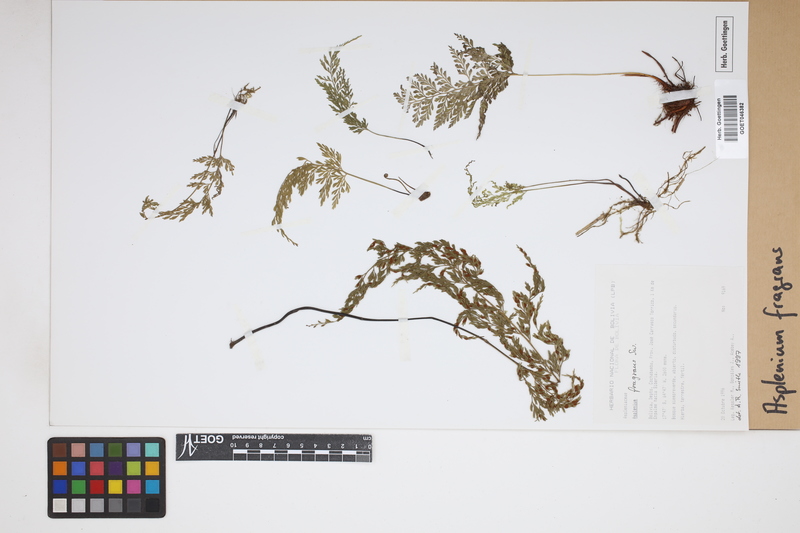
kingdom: Plantae
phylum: Tracheophyta
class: Polypodiopsida
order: Polypodiales
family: Aspleniaceae
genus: Asplenium
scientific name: Asplenium fragrans
